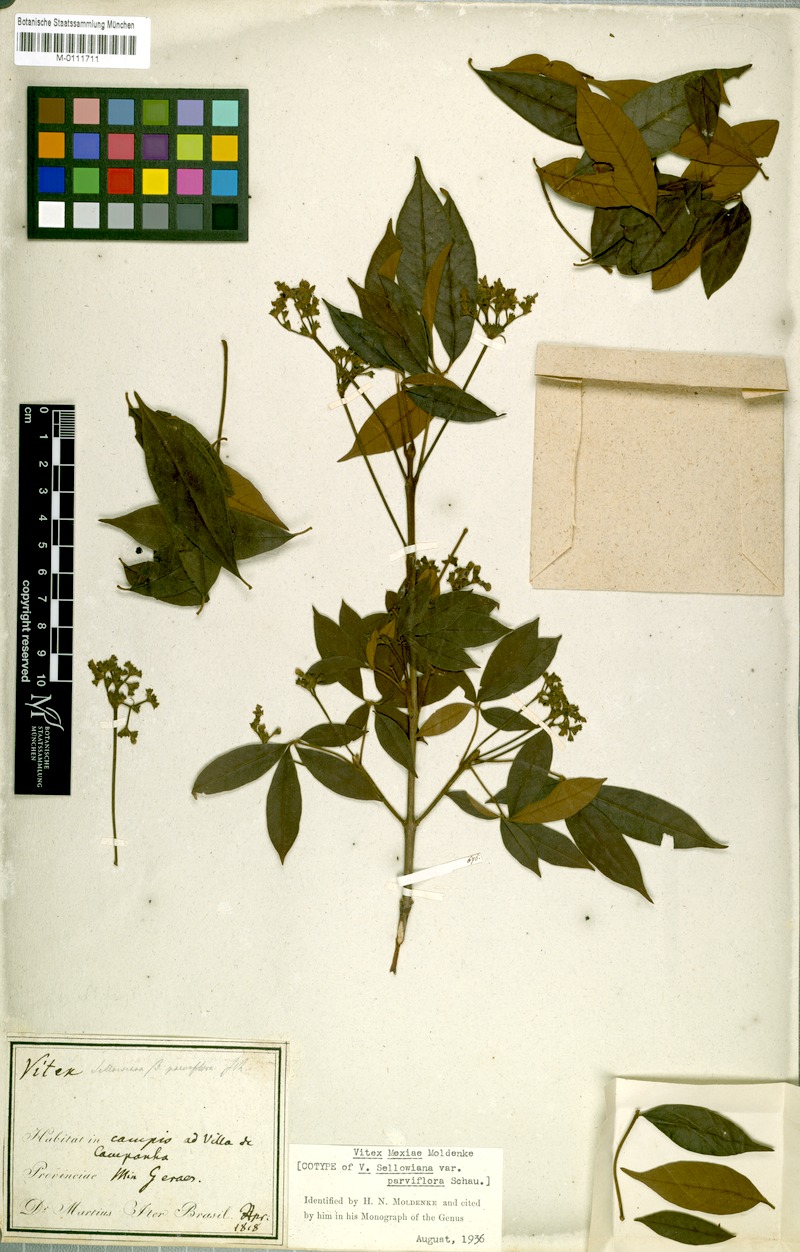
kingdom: Plantae
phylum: Tracheophyta
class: Magnoliopsida
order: Lamiales
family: Lamiaceae
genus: Vitex
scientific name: Vitex sellowiana
